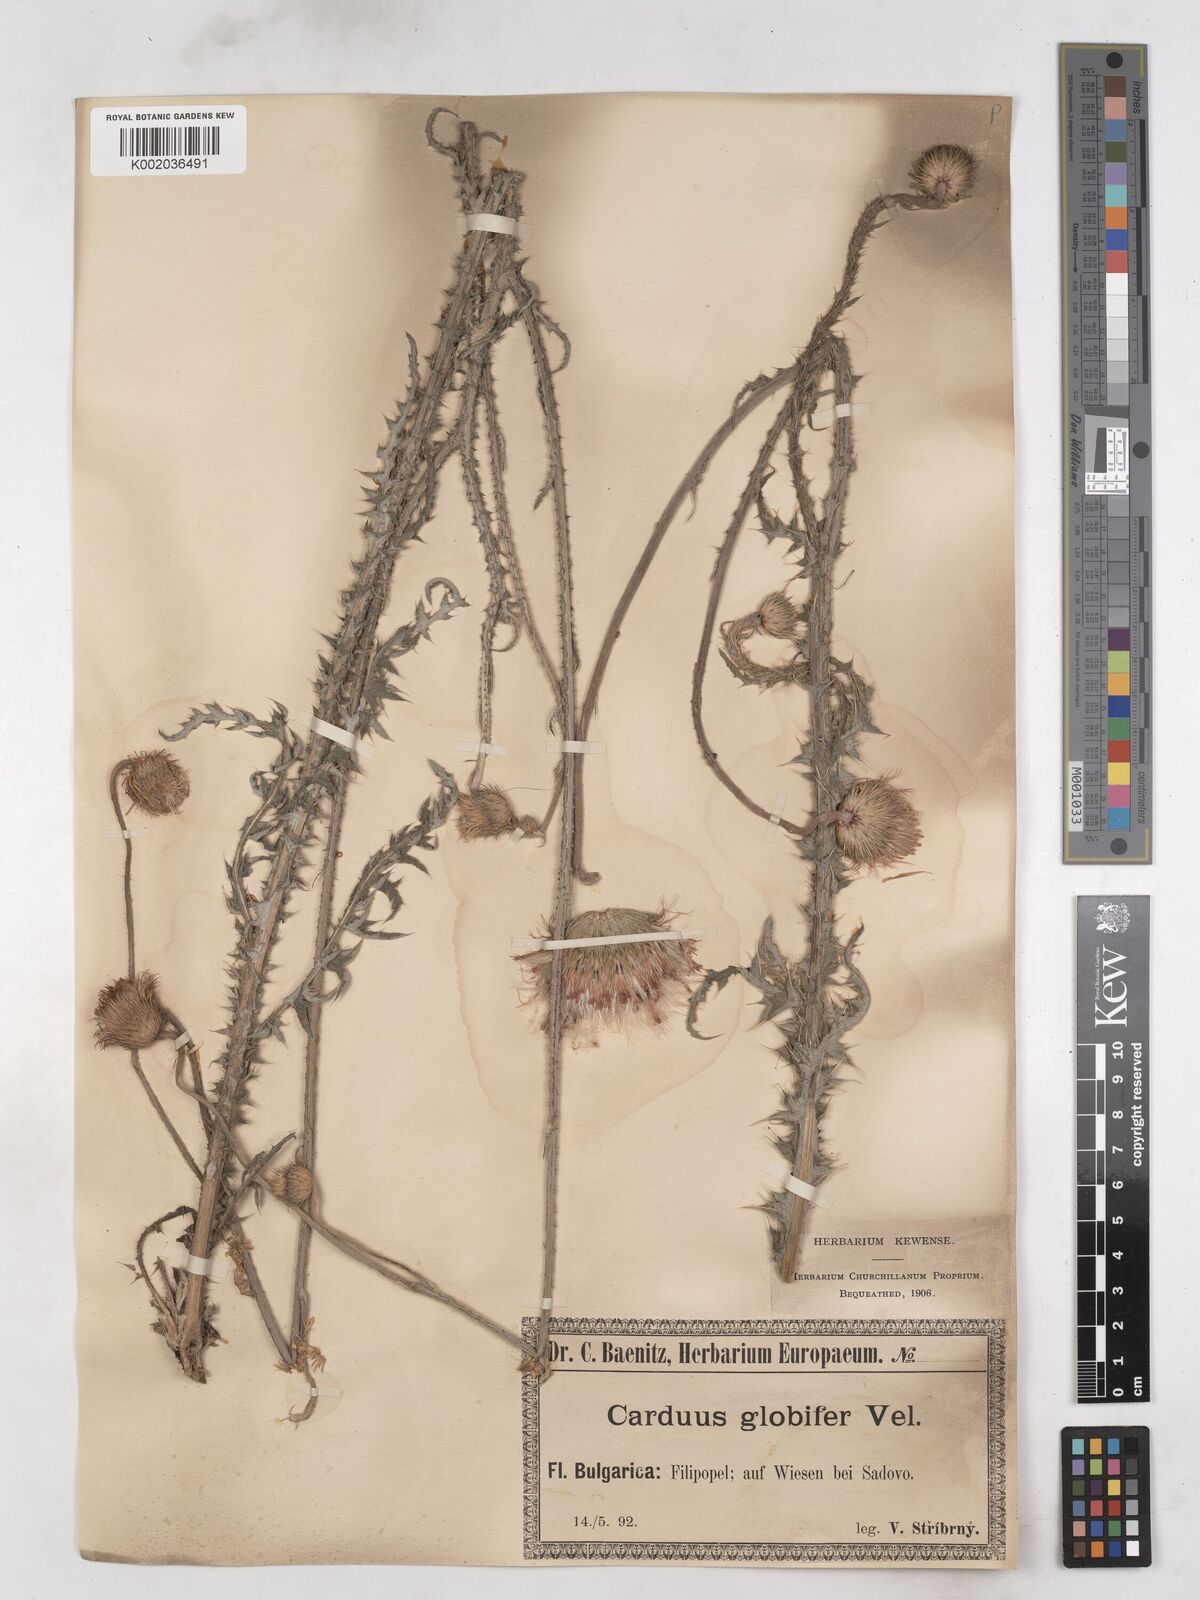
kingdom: Plantae
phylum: Tracheophyta
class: Magnoliopsida
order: Asterales
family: Asteraceae
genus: Carduus
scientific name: Carduus candicans
